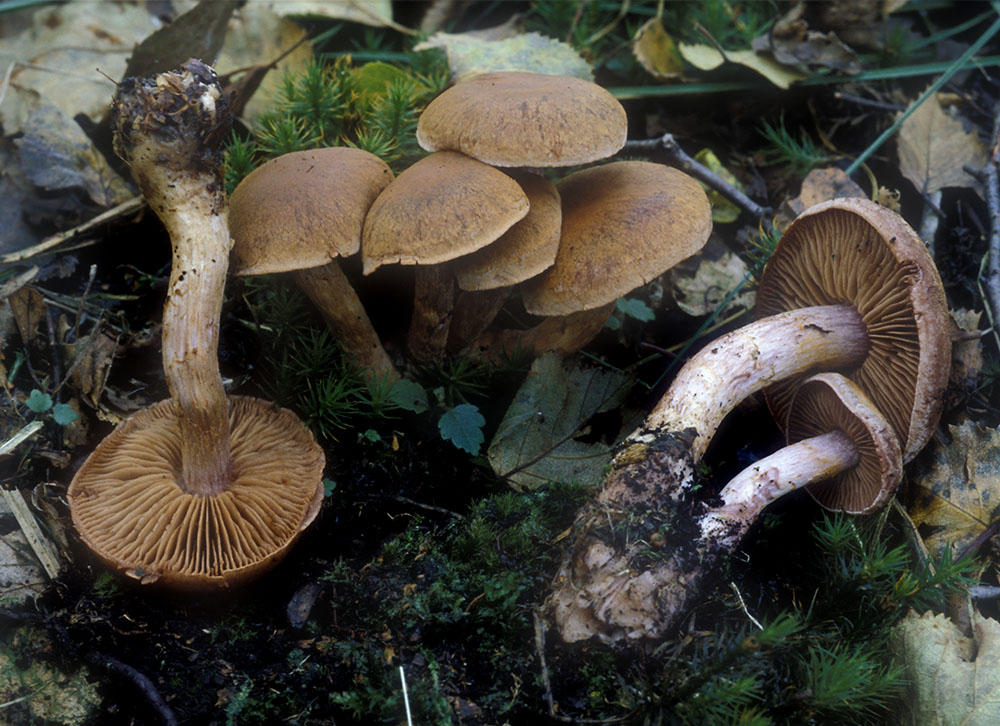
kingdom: Fungi
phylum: Basidiomycota
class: Agaricomycetes
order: Agaricales
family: Cortinariaceae
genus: Cortinarius
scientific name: Cortinarius paragaudis
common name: rødbæltet slørhat
